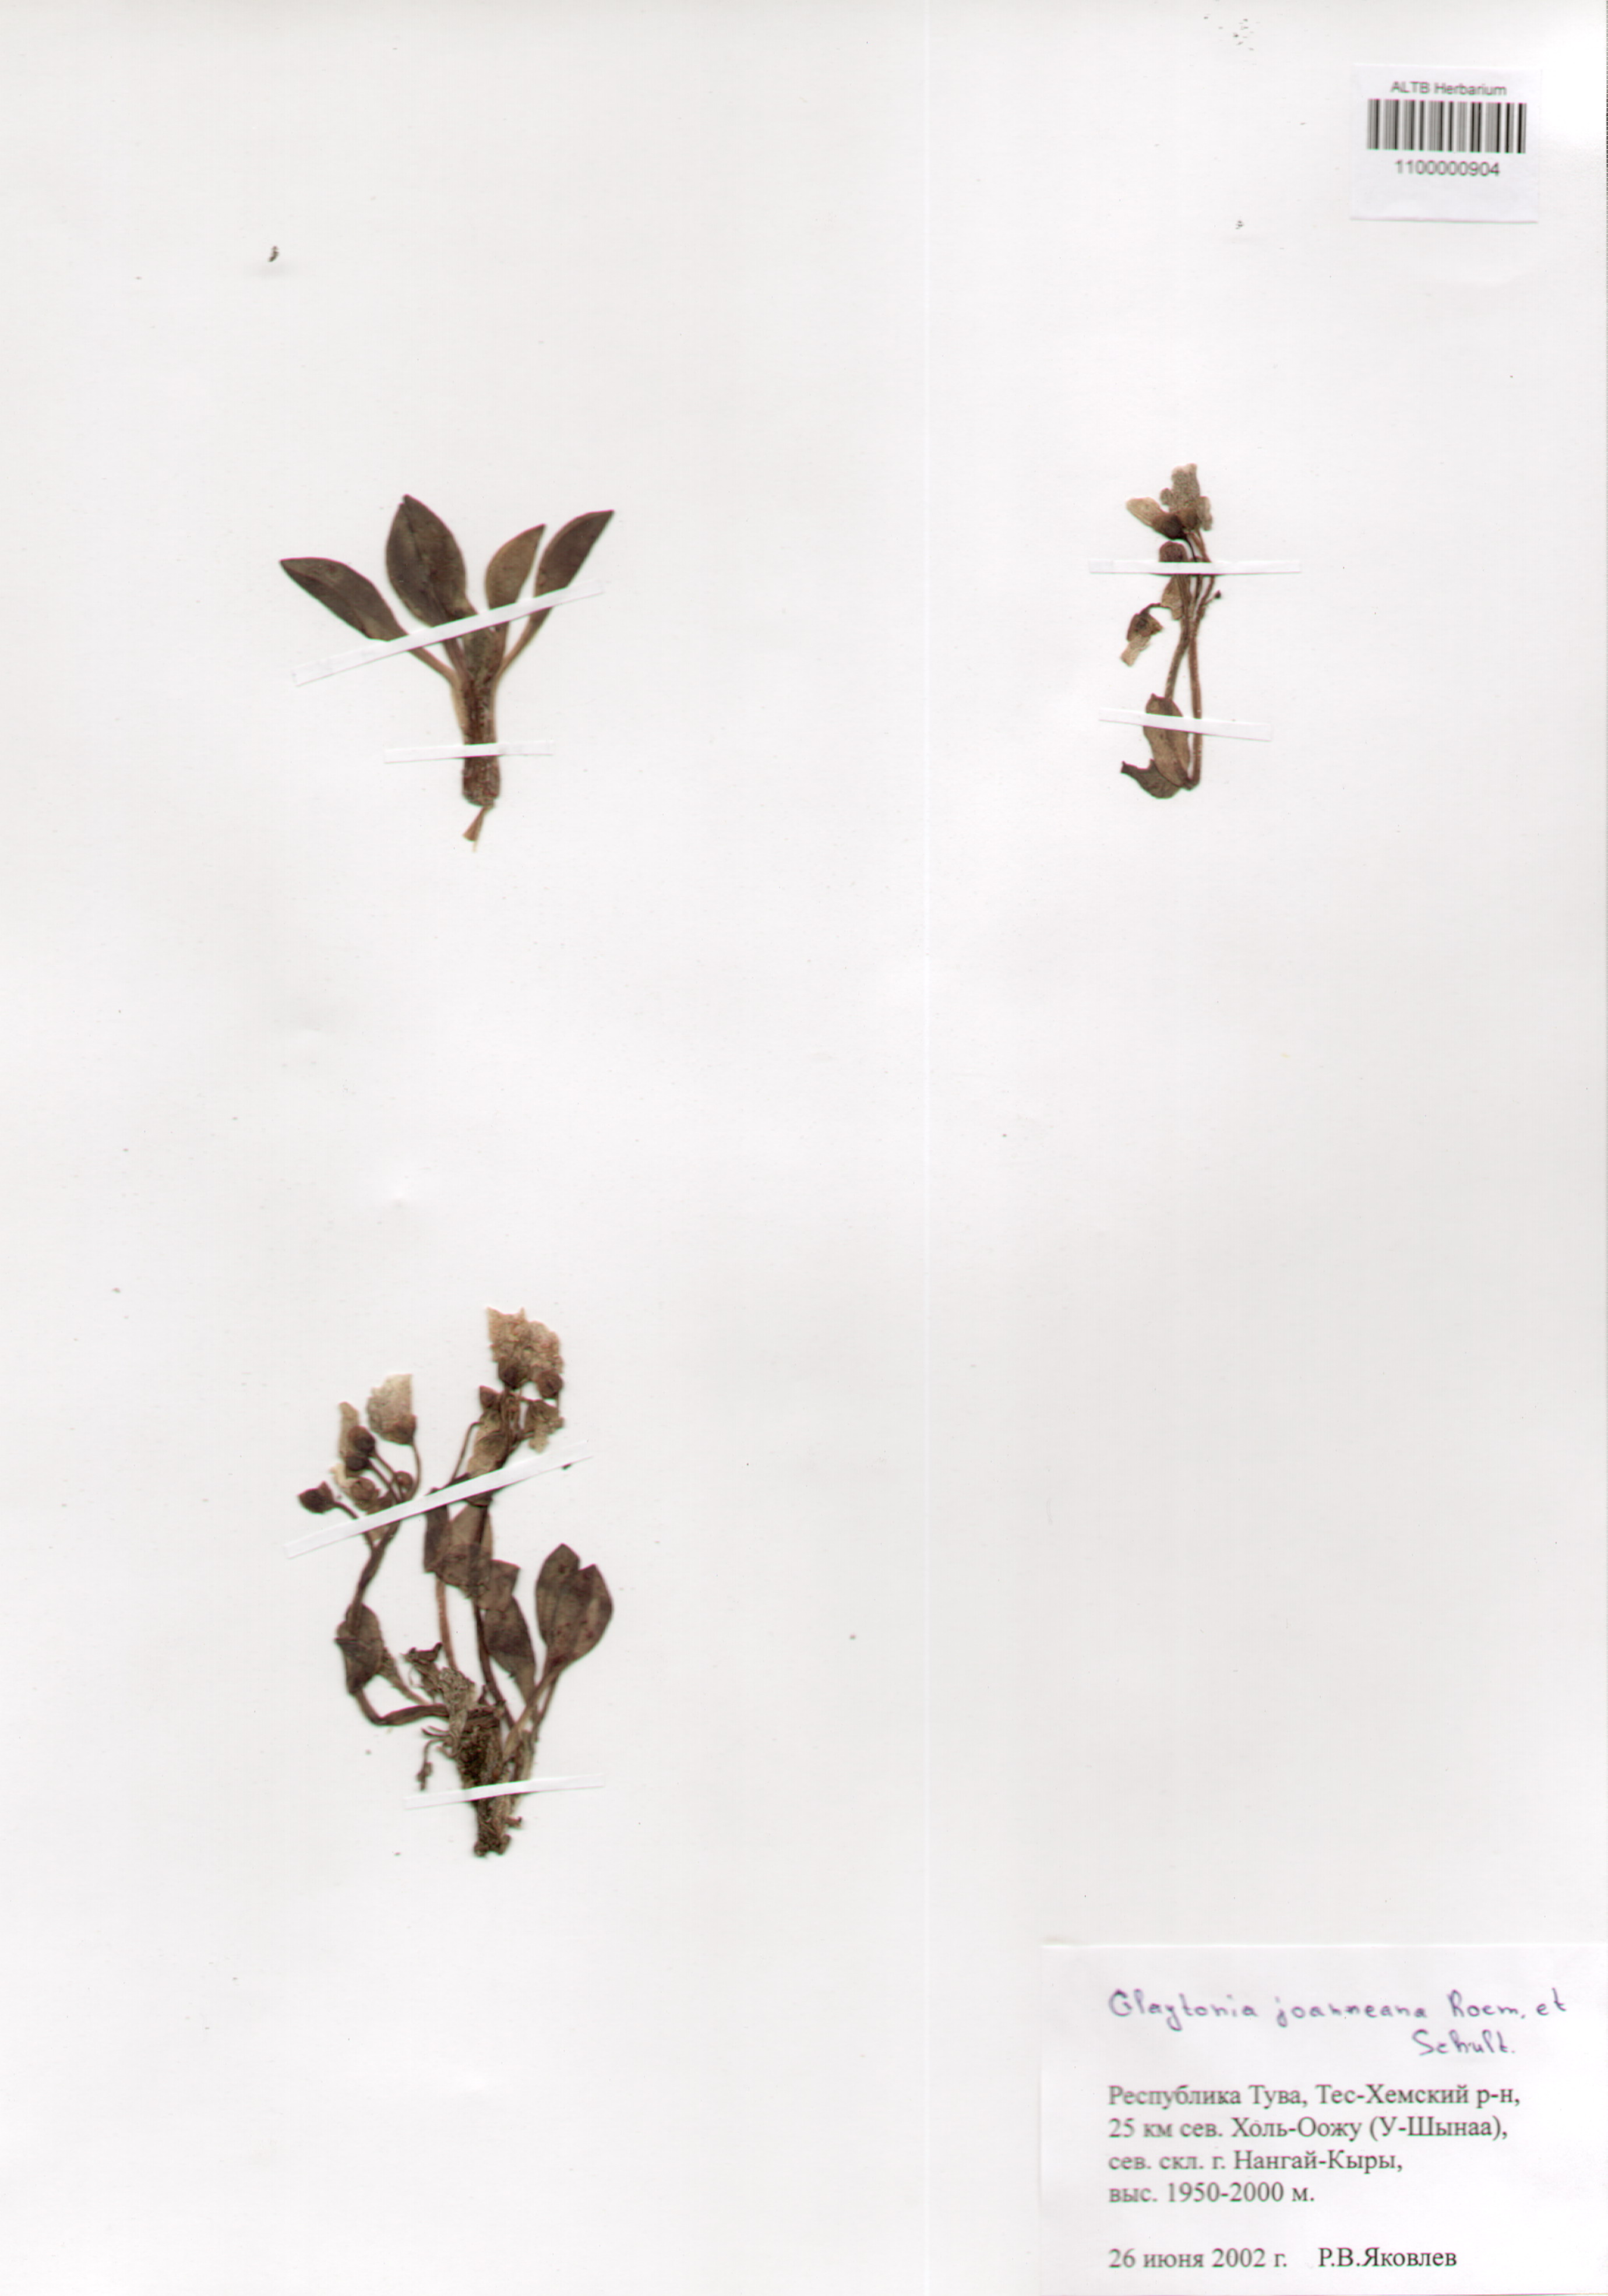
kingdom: Plantae
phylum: Tracheophyta
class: Magnoliopsida
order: Caryophyllales
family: Montiaceae
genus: Claytonia
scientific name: Claytonia joanneana
